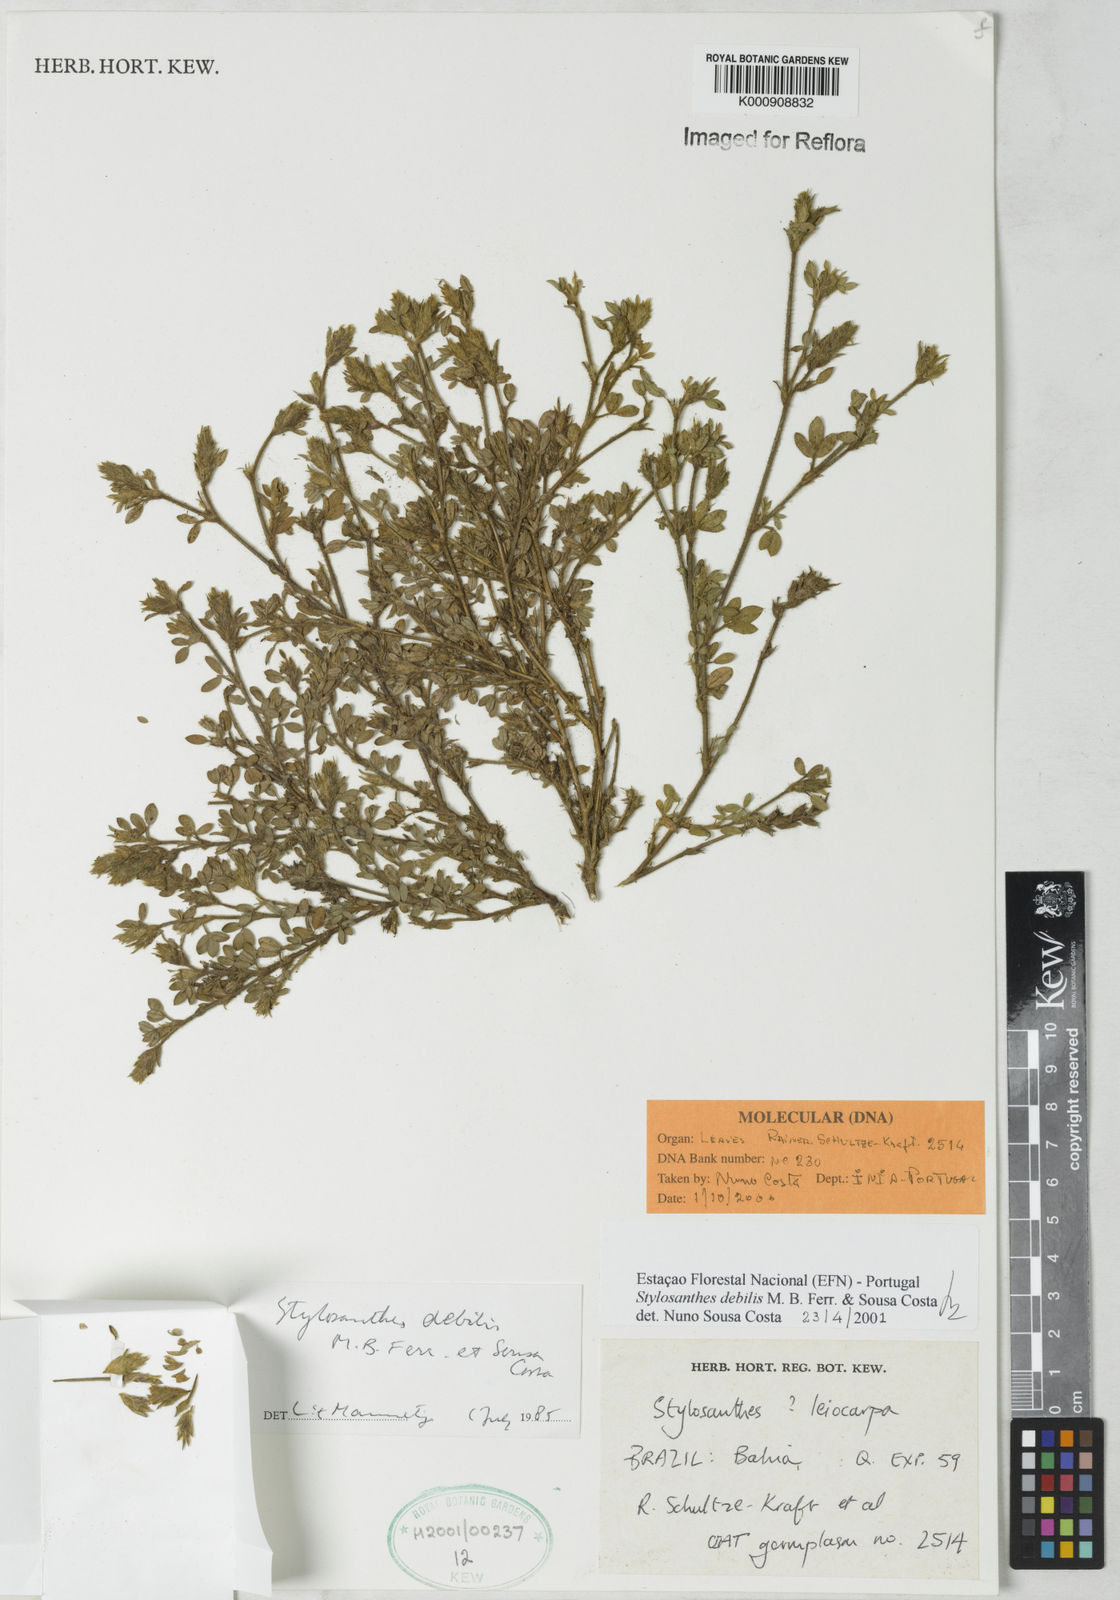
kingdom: Plantae
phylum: Tracheophyta
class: Magnoliopsida
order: Fabales
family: Fabaceae
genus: Stylosanthes
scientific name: Stylosanthes viscosa
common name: Viscid pencil-flower
